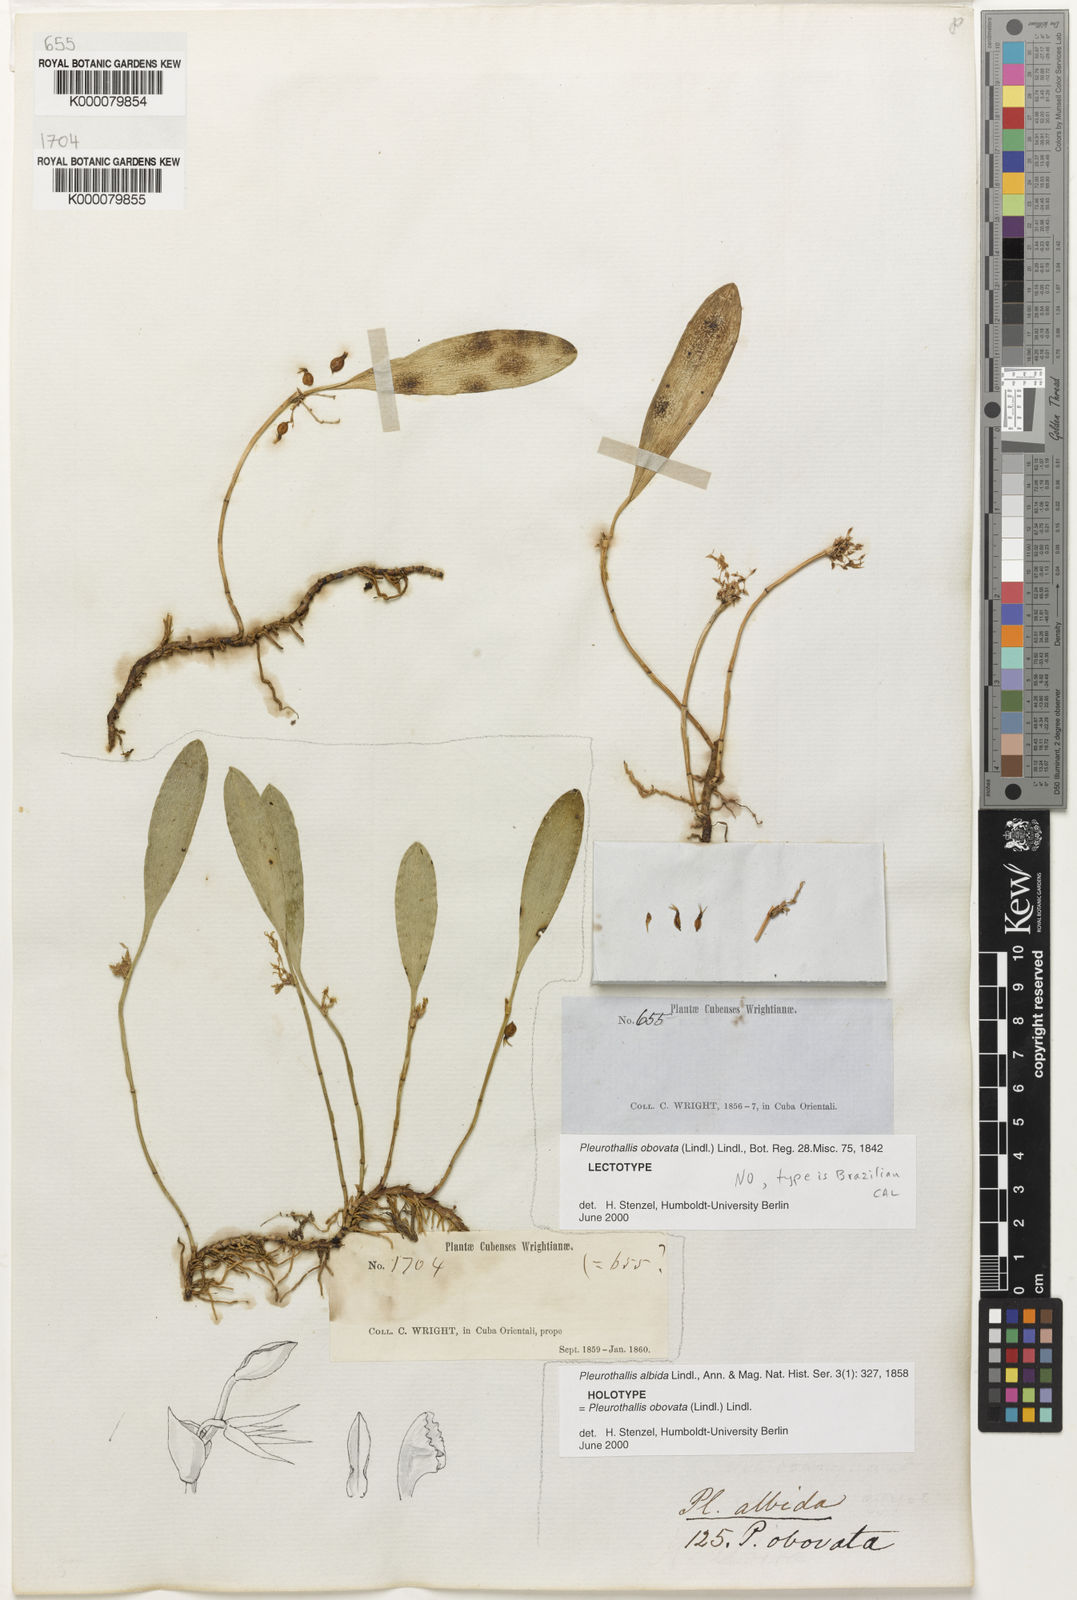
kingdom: Plantae
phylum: Tracheophyta
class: Liliopsida
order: Asparagales
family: Orchidaceae
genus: Anathallis
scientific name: Anathallis obovata
